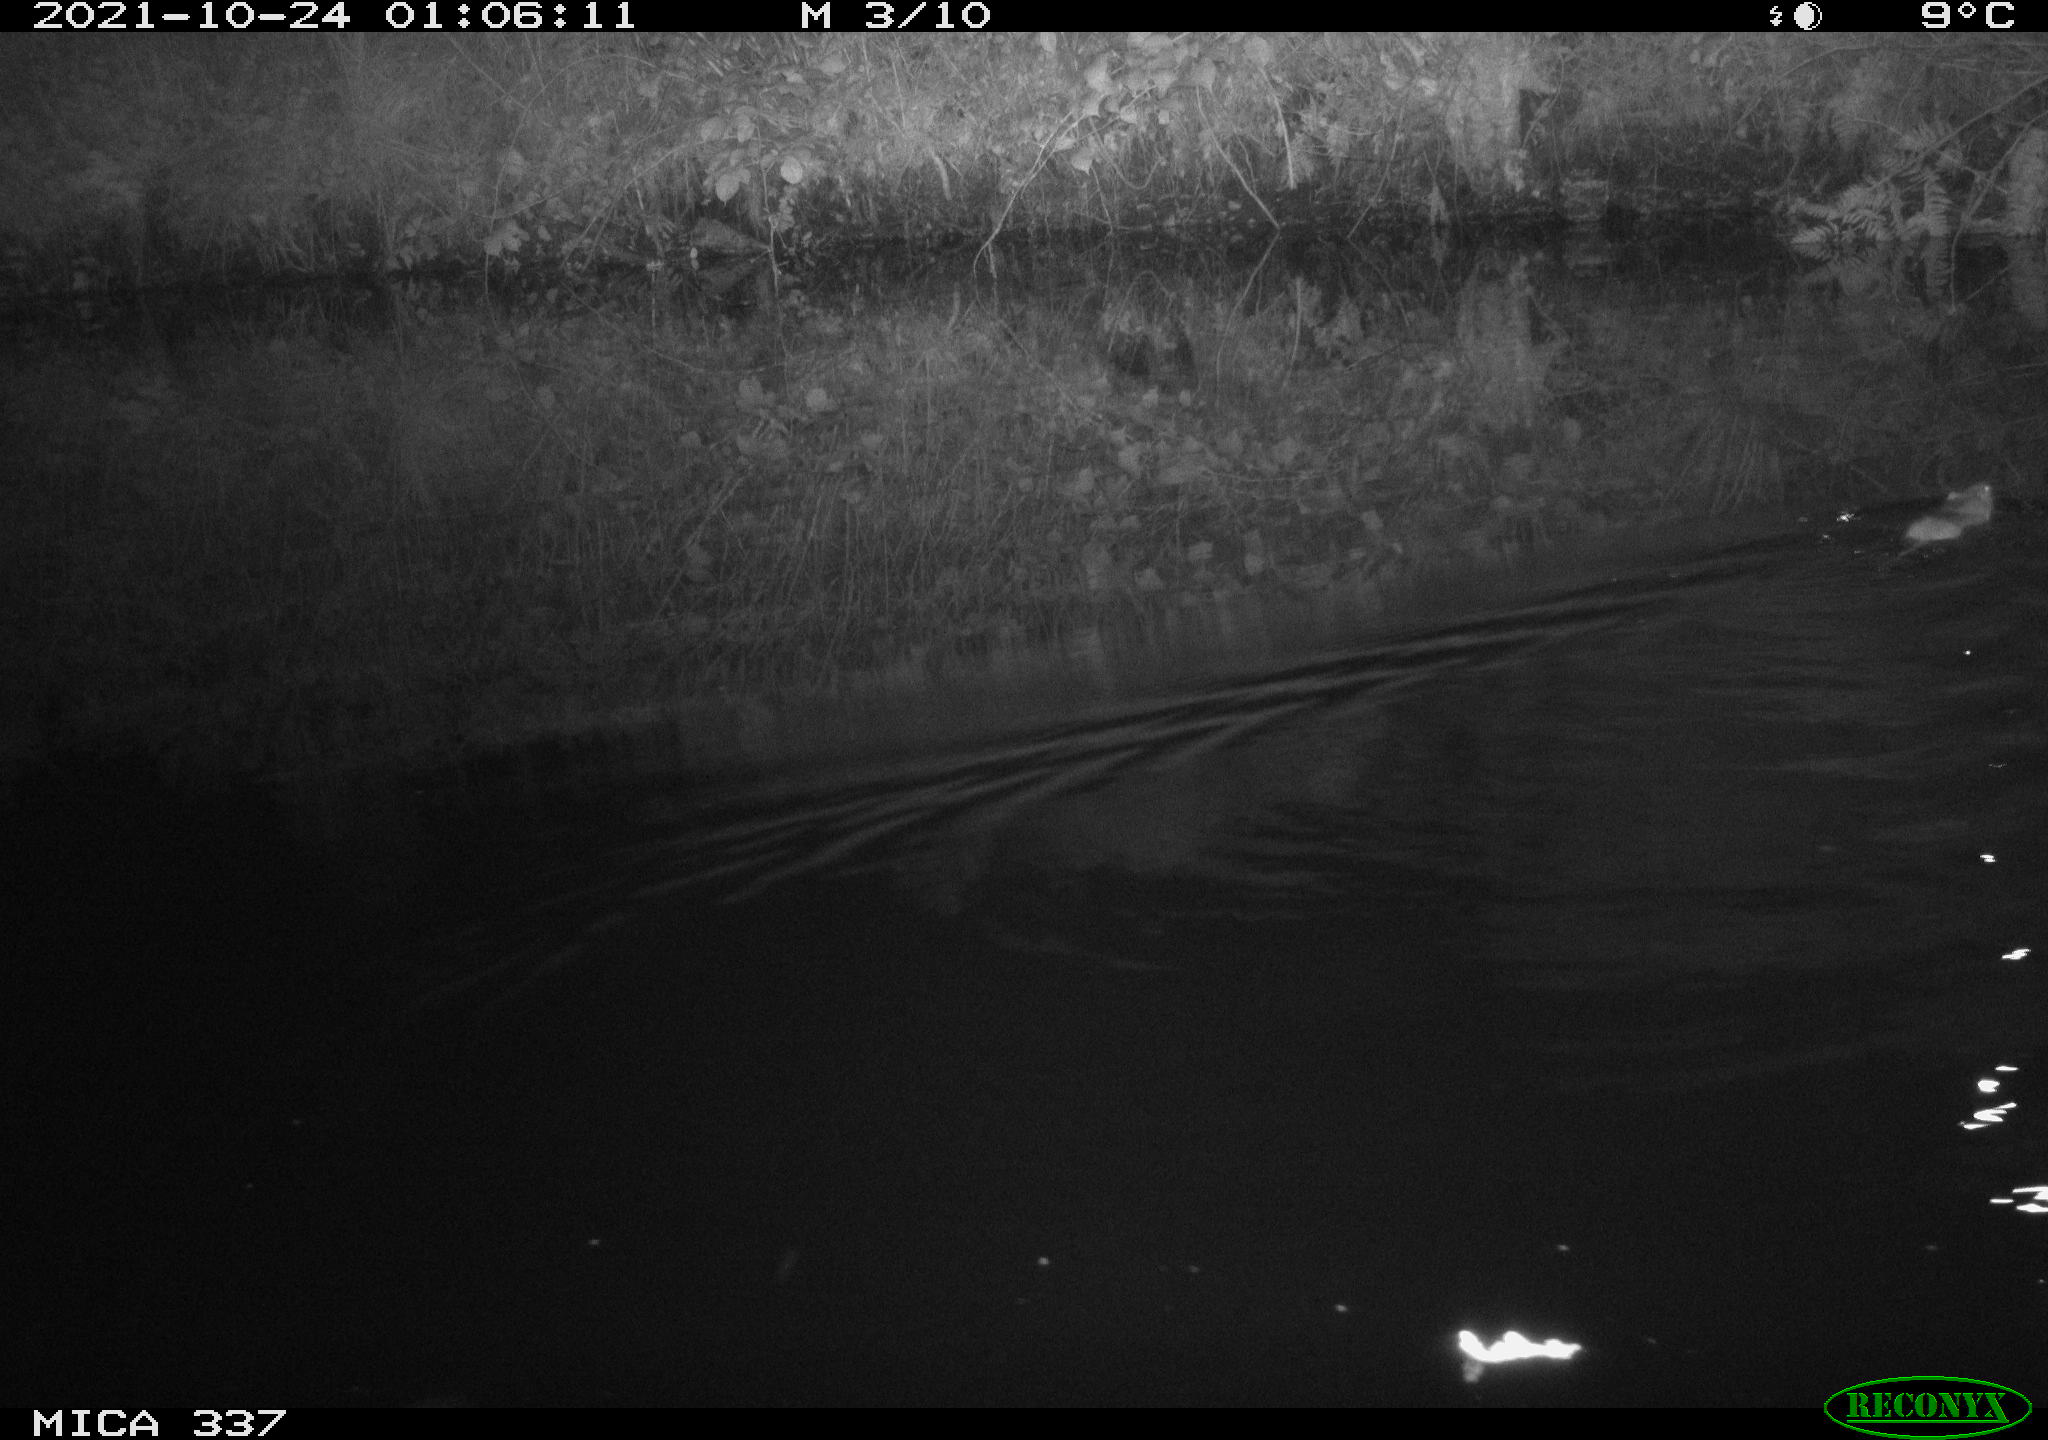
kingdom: Animalia
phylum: Chordata
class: Mammalia
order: Rodentia
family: Muridae
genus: Rattus
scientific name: Rattus norvegicus
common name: Brown rat
